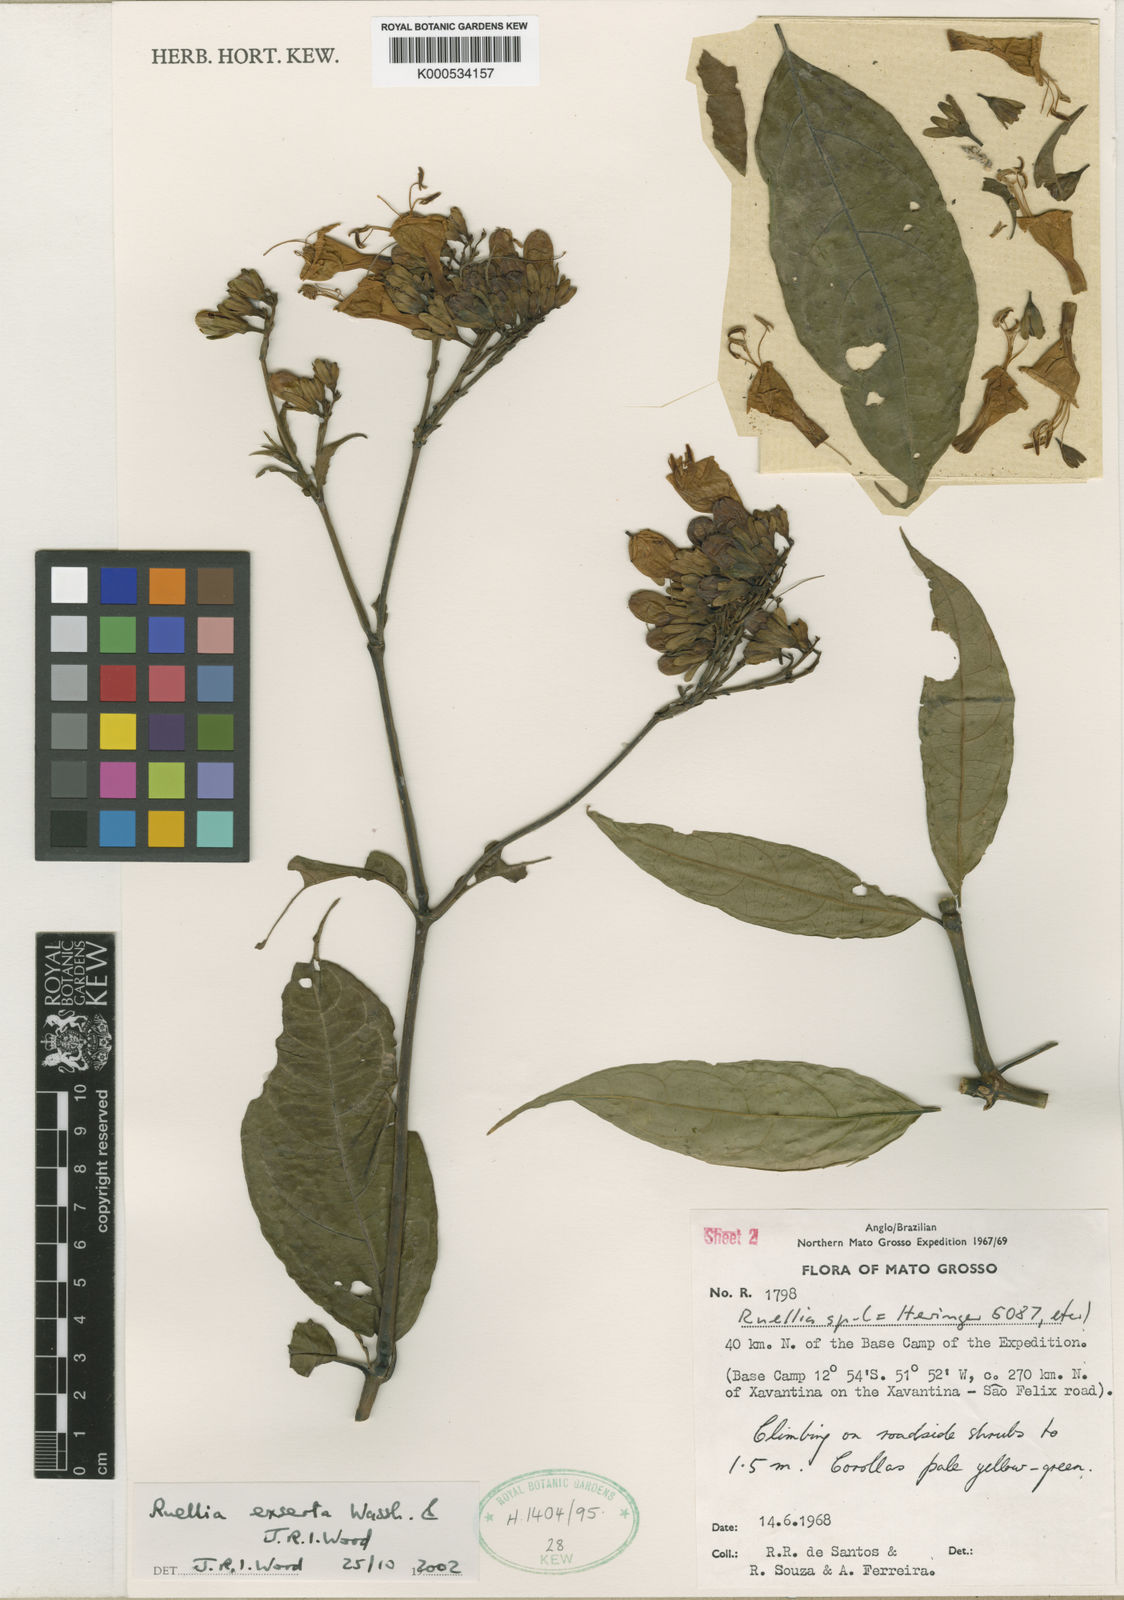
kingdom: Plantae
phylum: Tracheophyta
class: Magnoliopsida
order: Lamiales
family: Acanthaceae
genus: Ruellia
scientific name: Ruellia exserta
